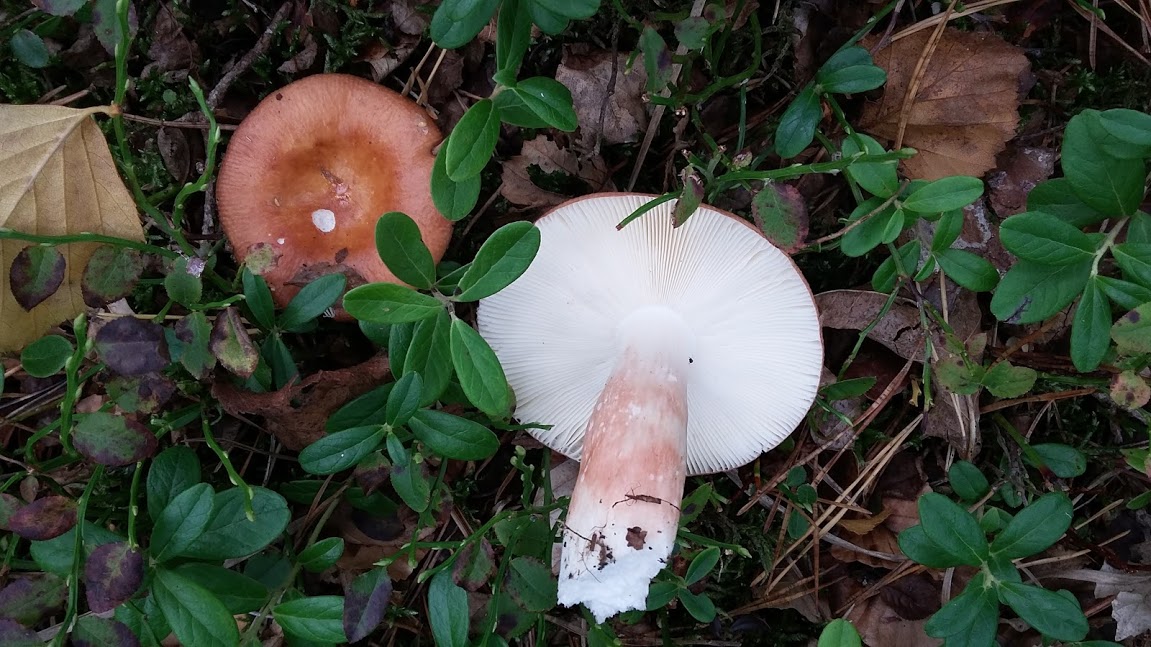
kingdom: Fungi
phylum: Basidiomycota
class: Agaricomycetes
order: Russulales
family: Russulaceae
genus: Russula
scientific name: Russula velenovskyi
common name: orangerød skørhat
